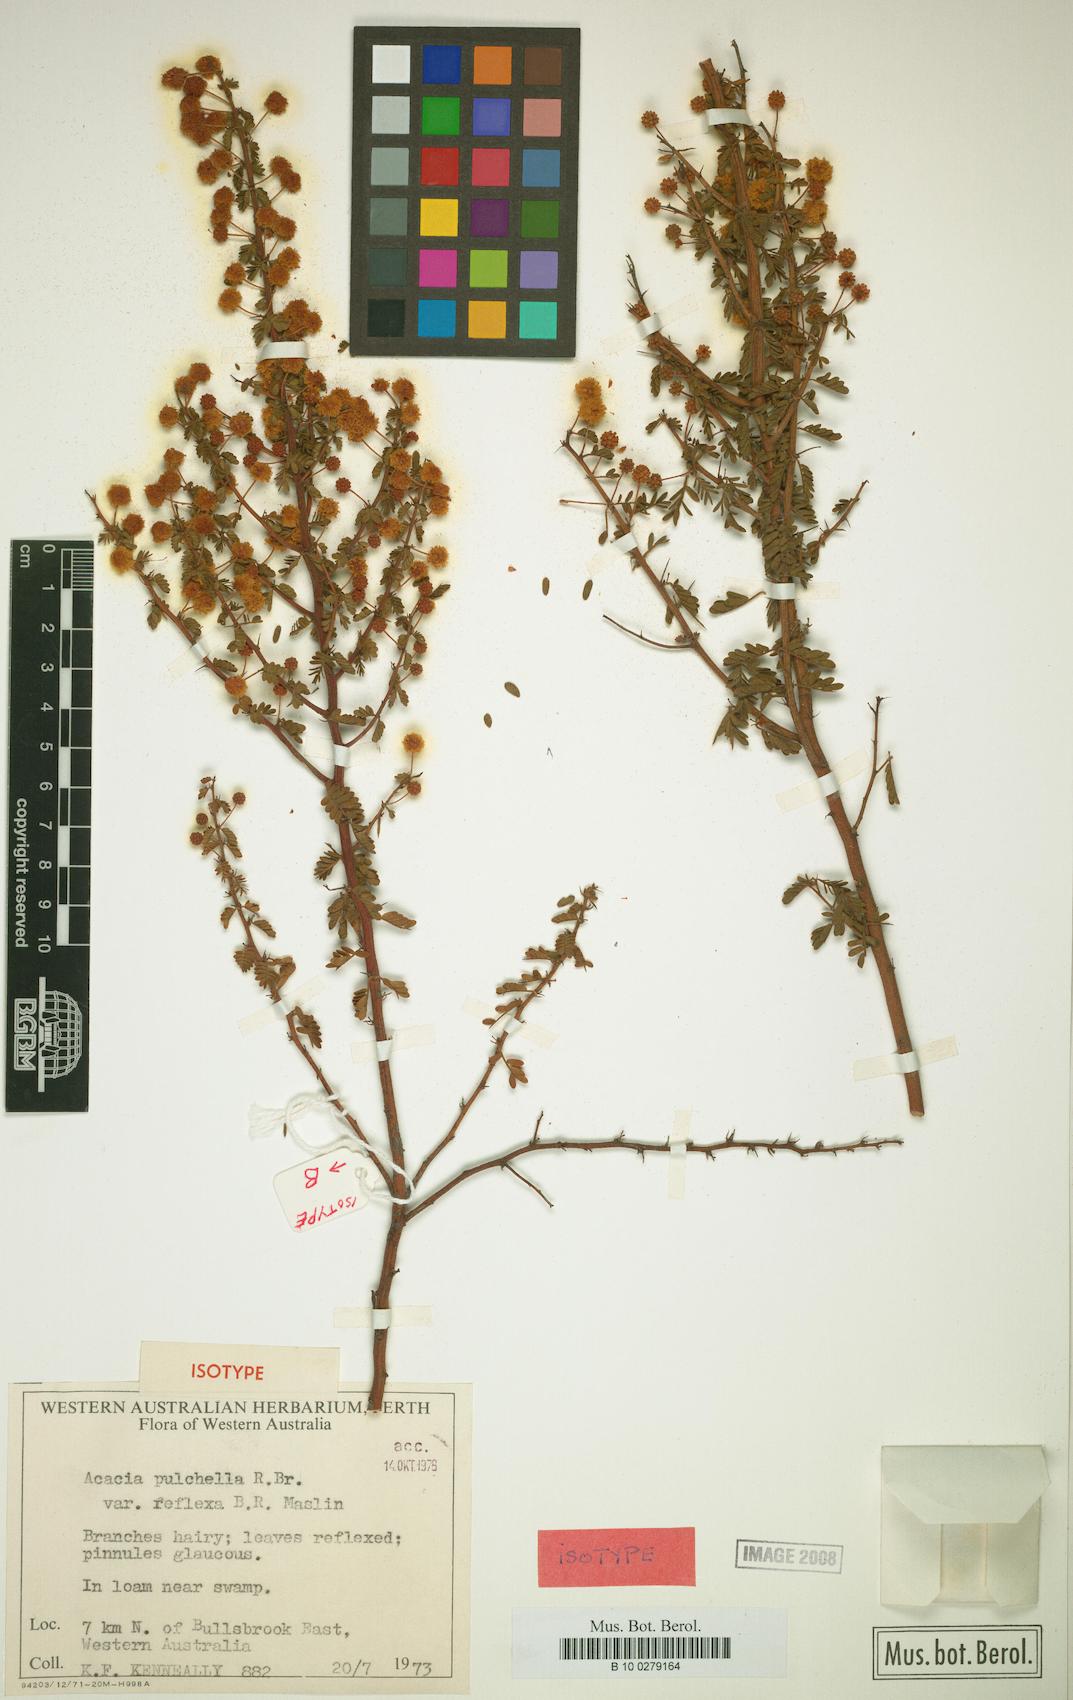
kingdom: Plantae
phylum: Tracheophyta
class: Magnoliopsida
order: Fabales
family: Fabaceae
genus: Acacia
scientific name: Acacia pulchella
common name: Prickly moses
